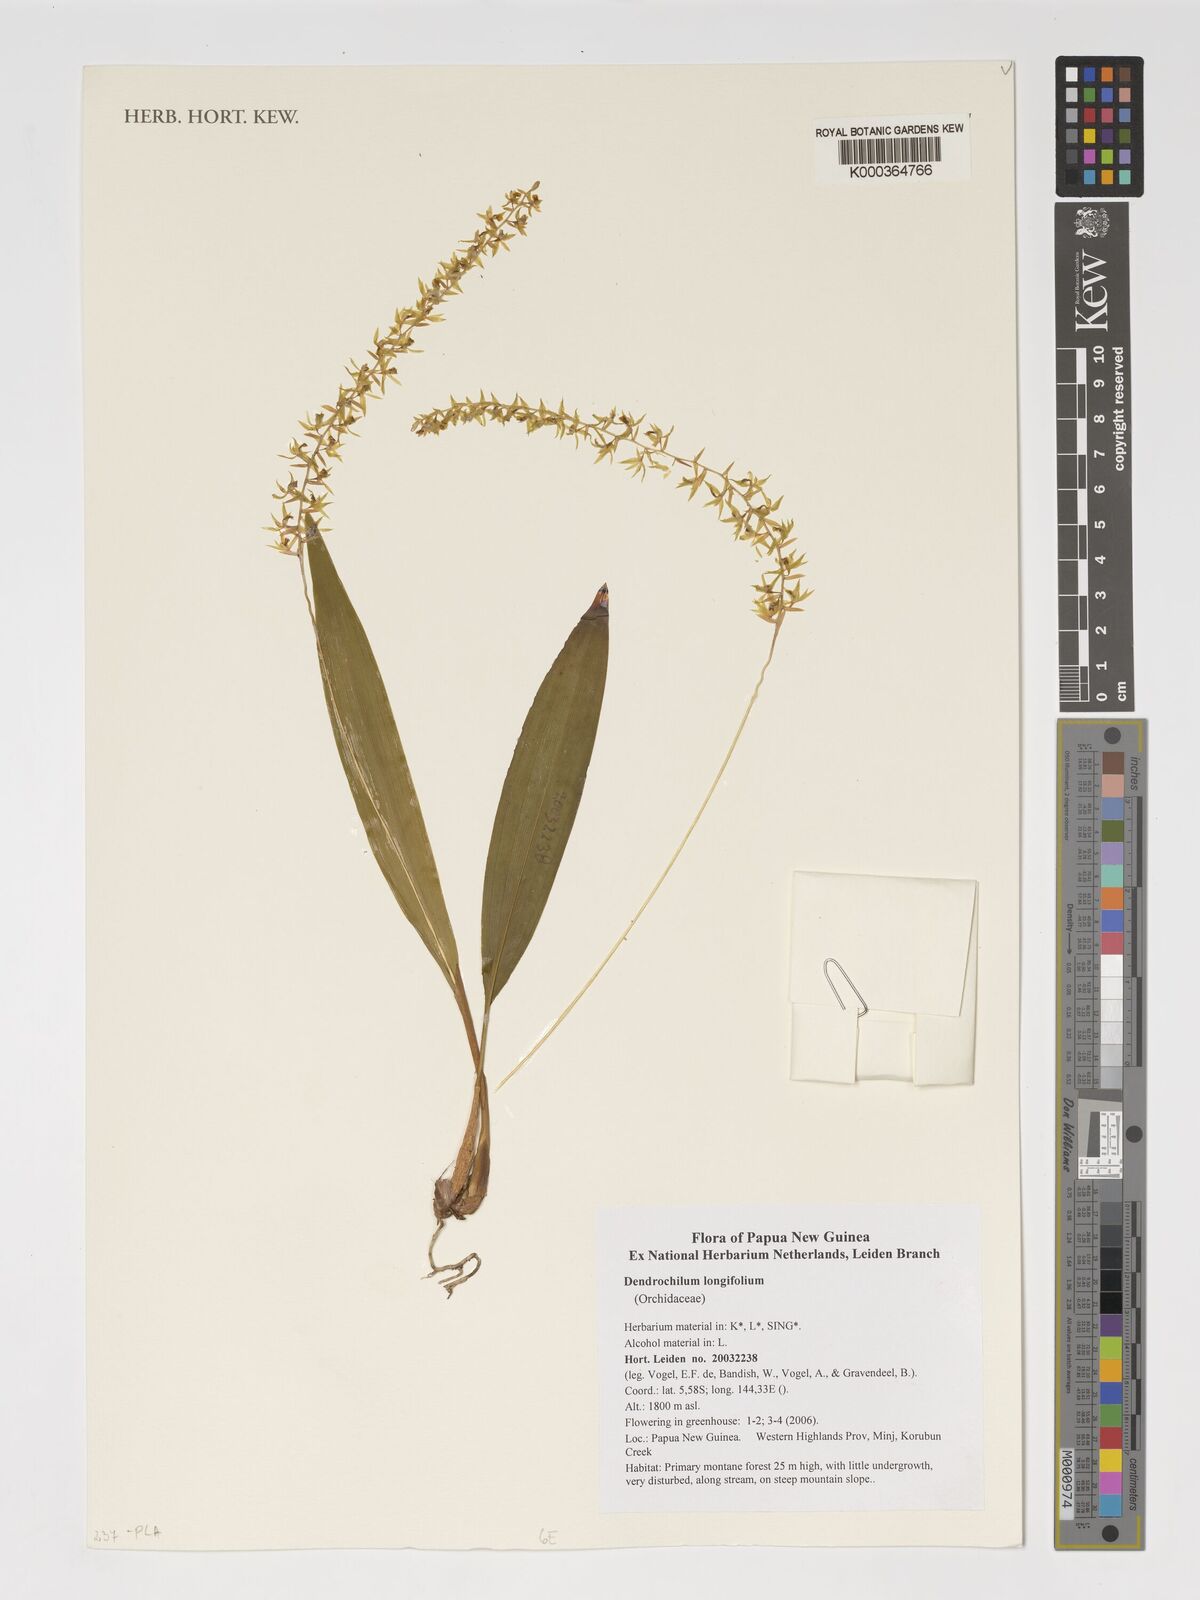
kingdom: Plantae
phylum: Tracheophyta
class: Liliopsida
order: Asparagales
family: Orchidaceae
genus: Coelogyne
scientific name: Coelogyne bracteosa
